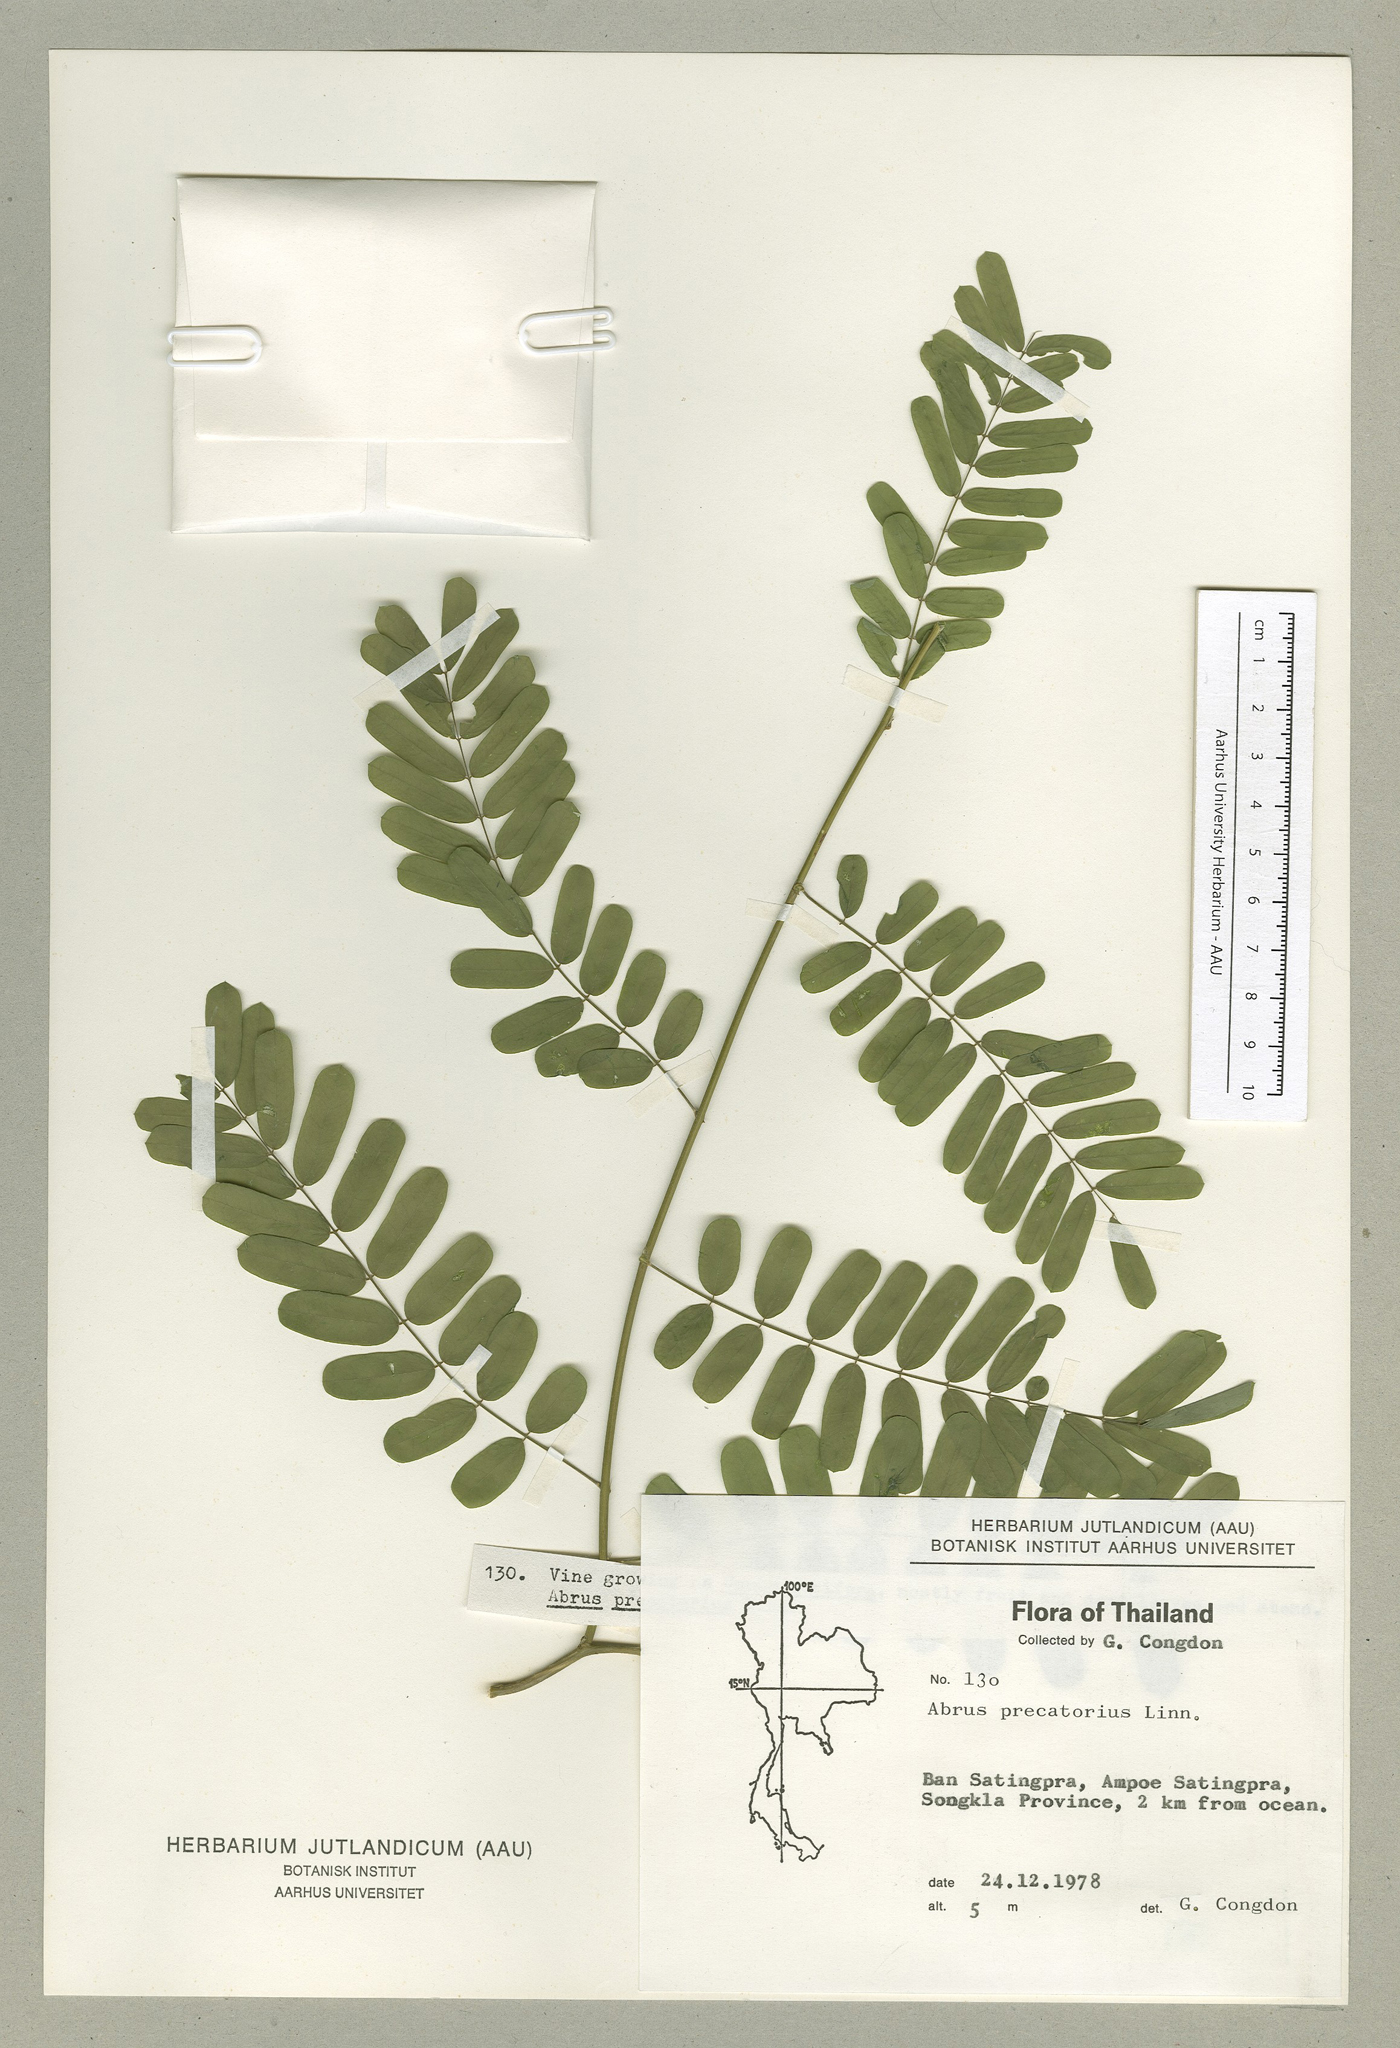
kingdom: Plantae
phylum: Tracheophyta
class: Magnoliopsida
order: Fabales
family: Fabaceae
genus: Abrus
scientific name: Abrus precatorius
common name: Rosarypea
